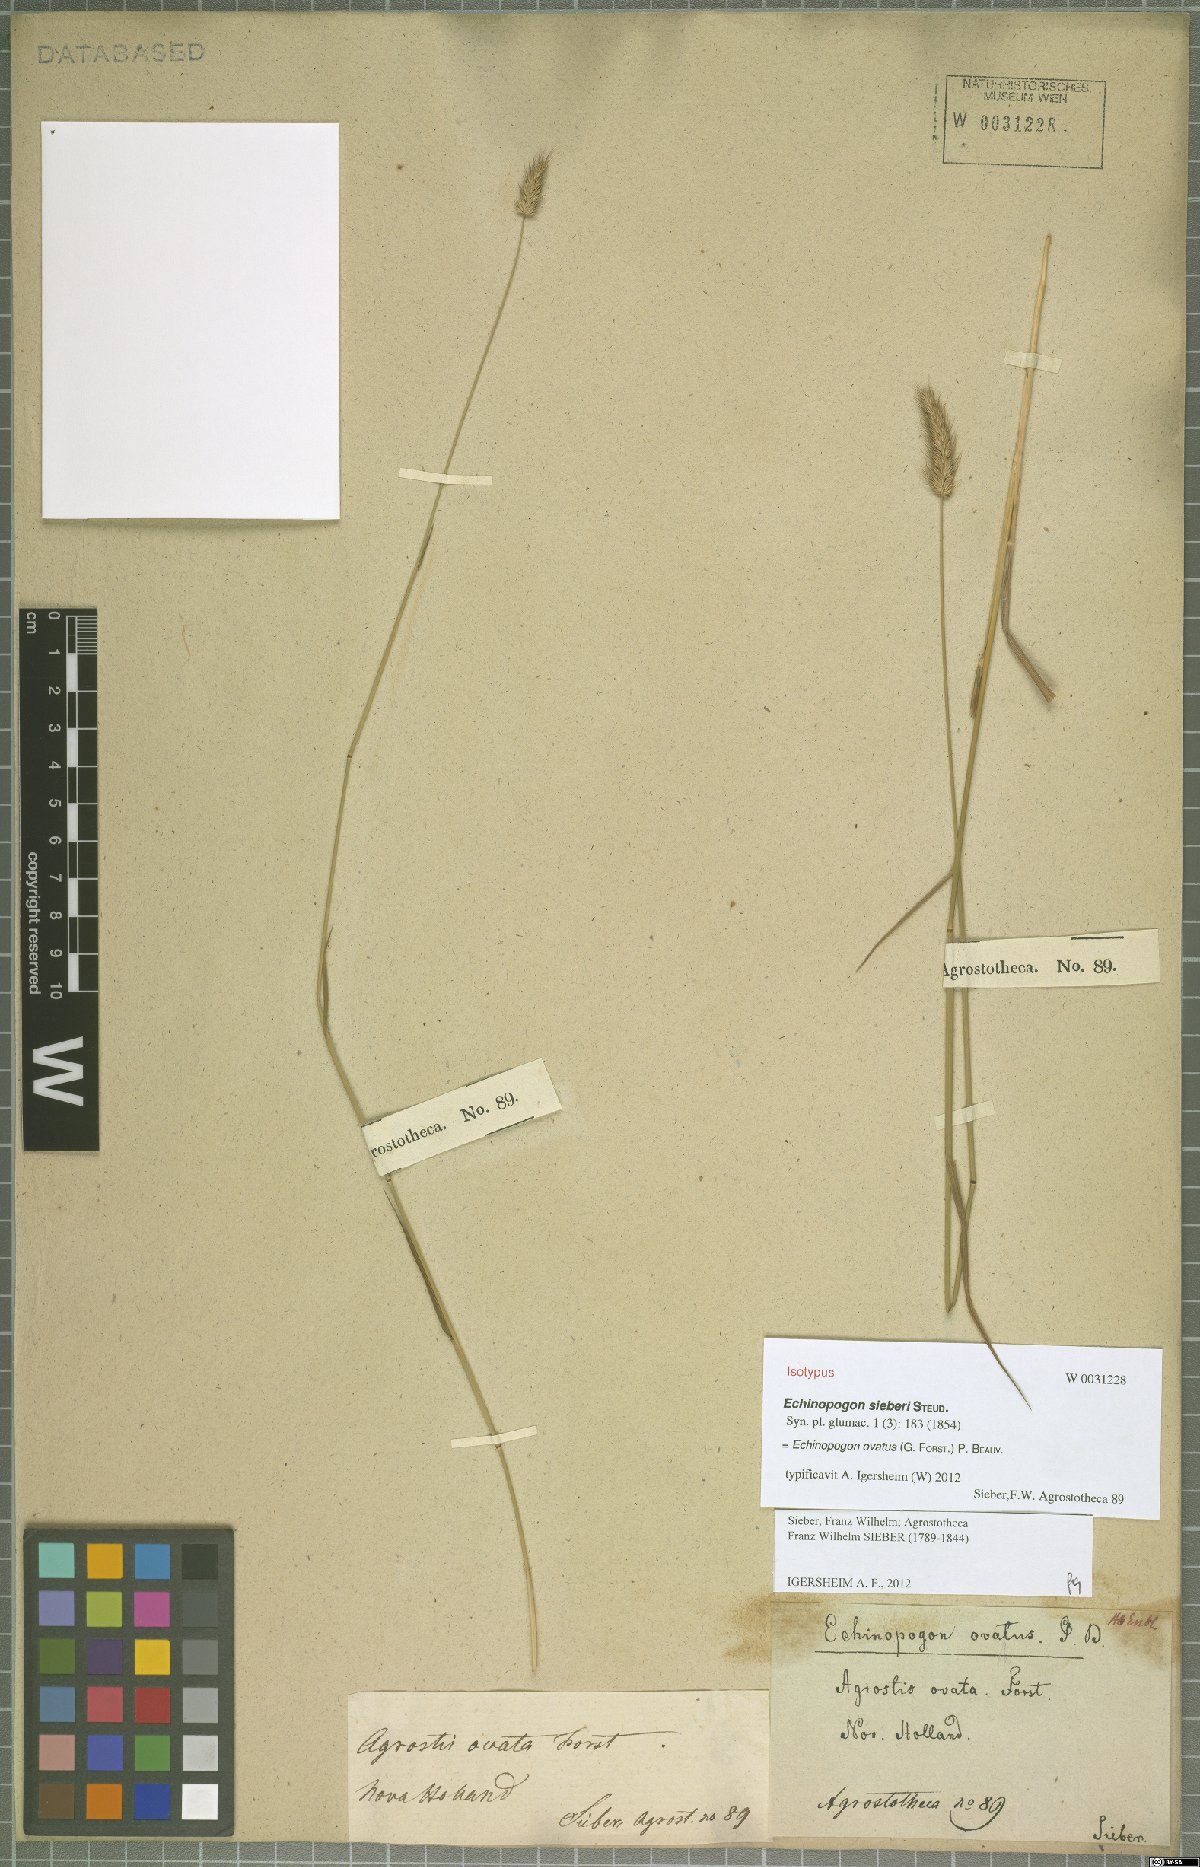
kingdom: Plantae
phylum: Tracheophyta
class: Liliopsida
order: Poales
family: Poaceae
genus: Echinopogon
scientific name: Echinopogon ovatus
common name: Hedgehog-grass
